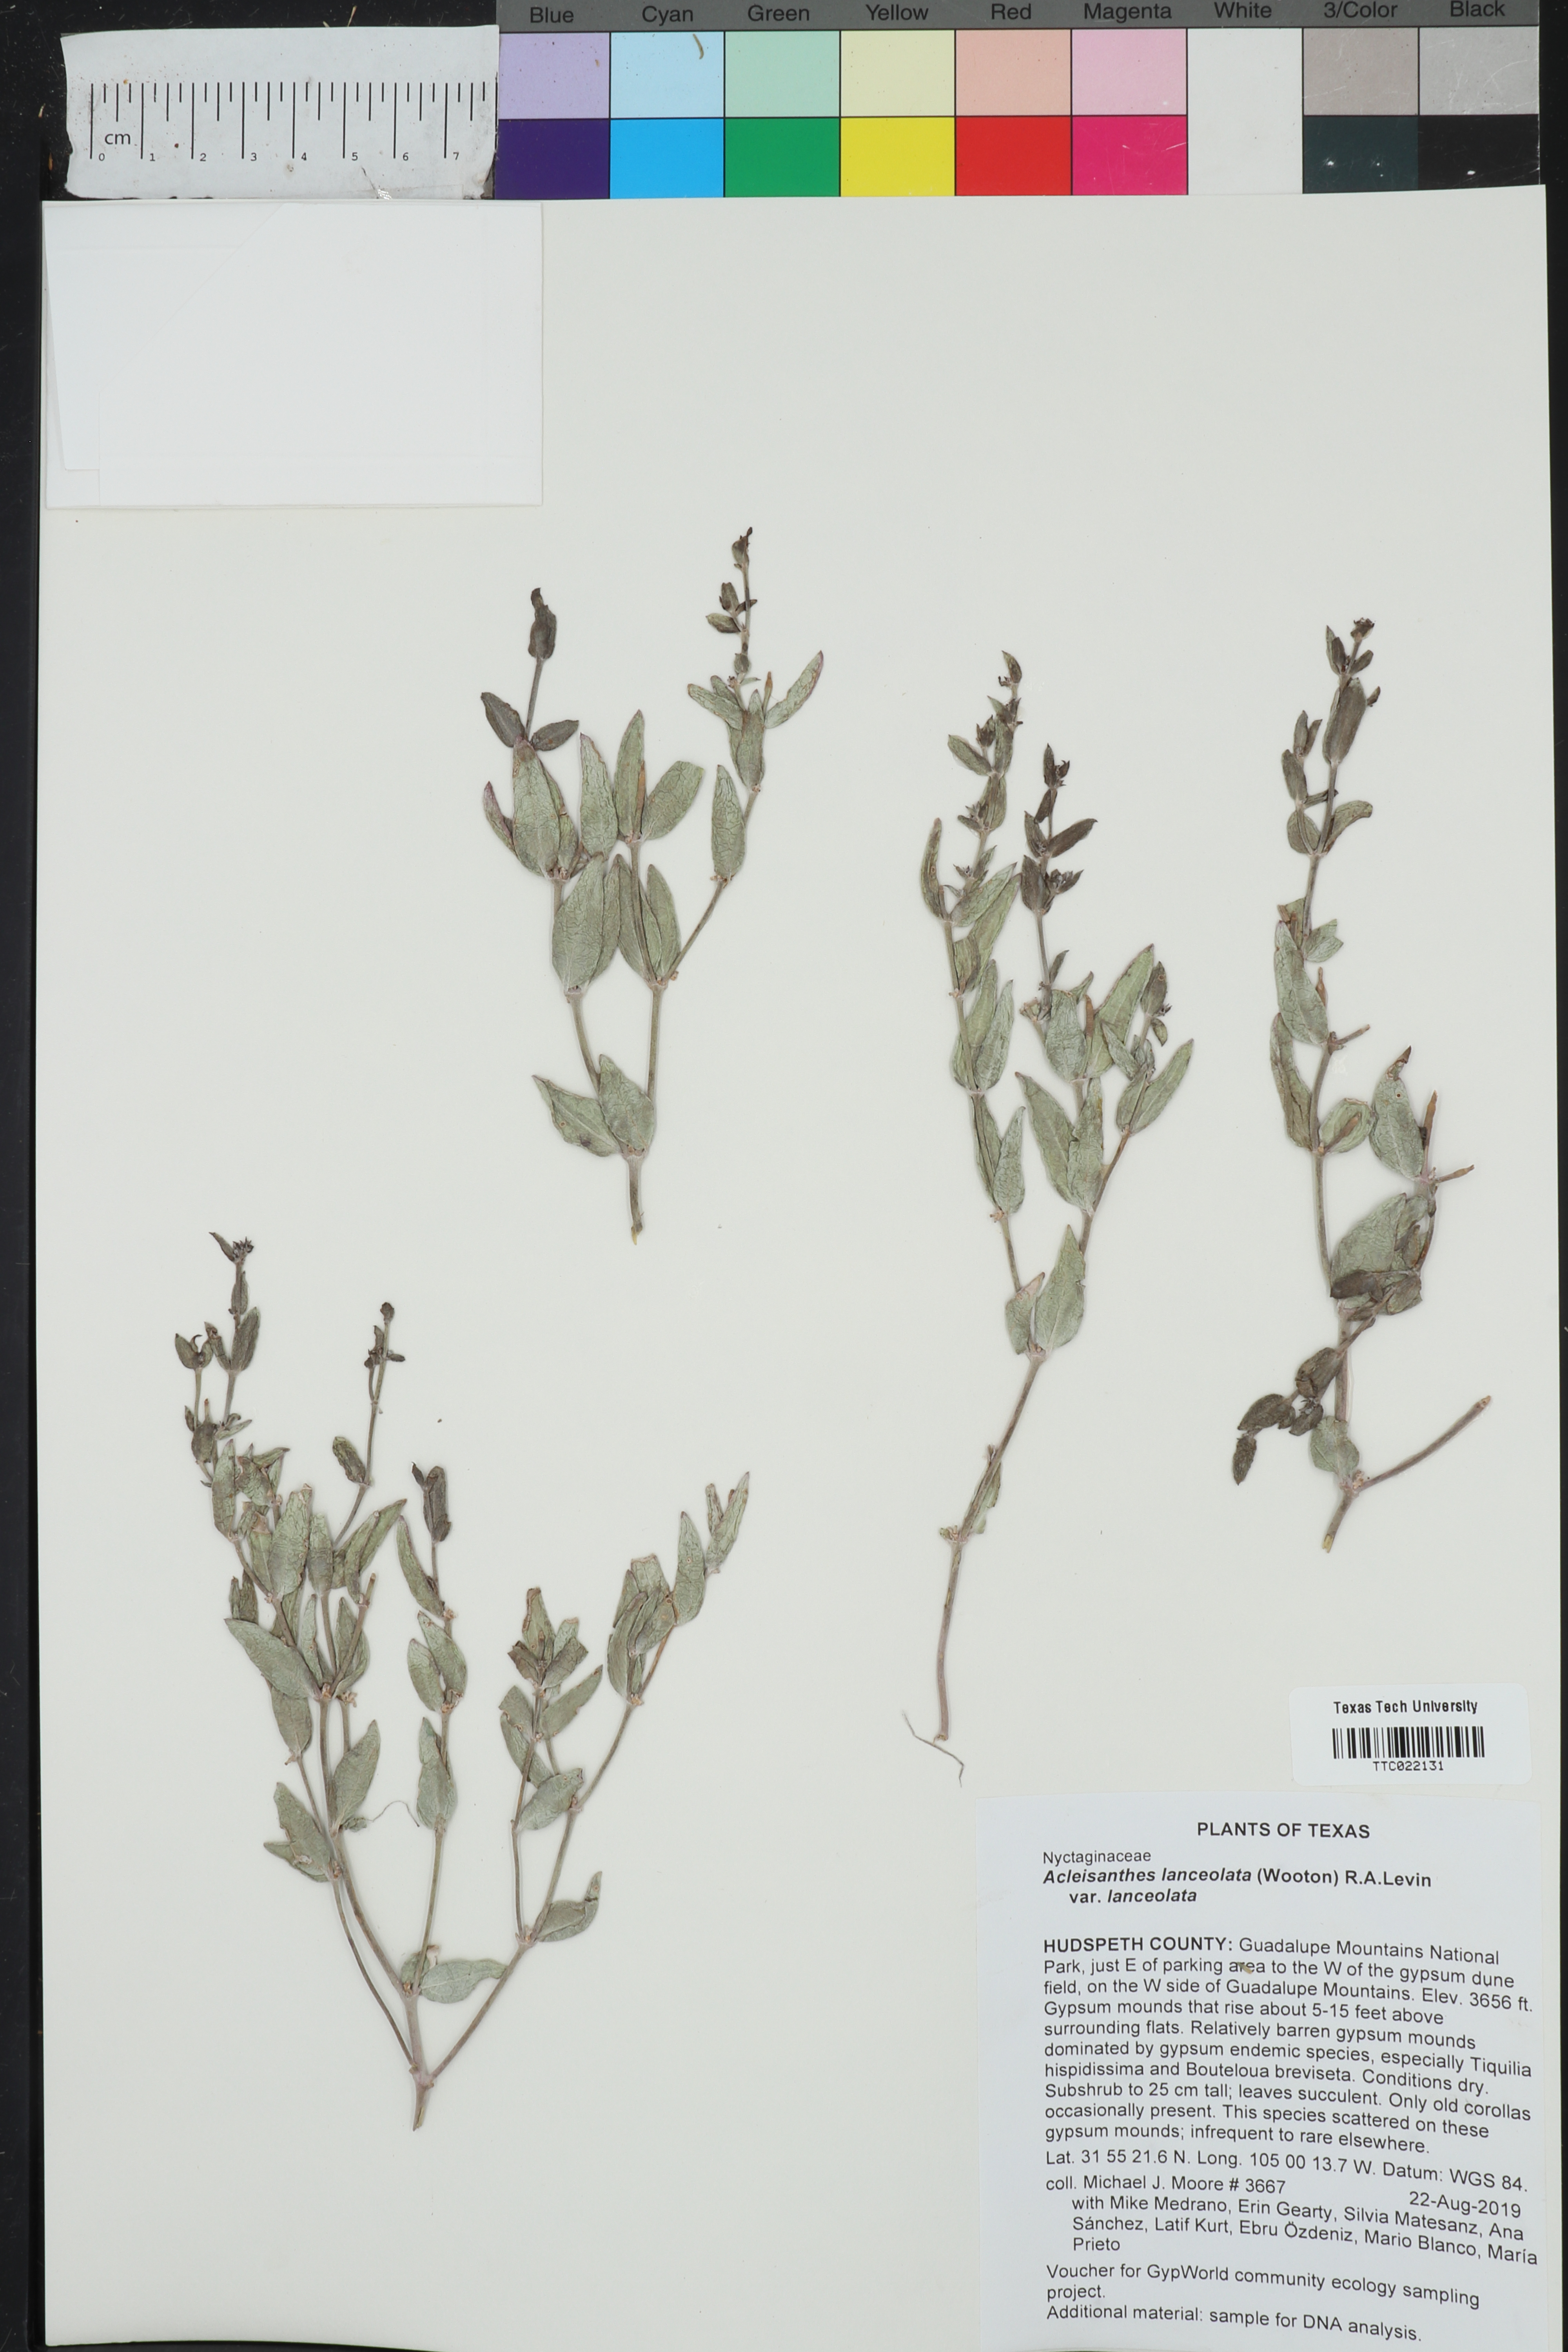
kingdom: Plantae
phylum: Tracheophyta
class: Magnoliopsida
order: Caryophyllales
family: Nyctaginaceae
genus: Acleisanthes
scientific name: Acleisanthes lanceolata
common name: Gypsum moonpod
